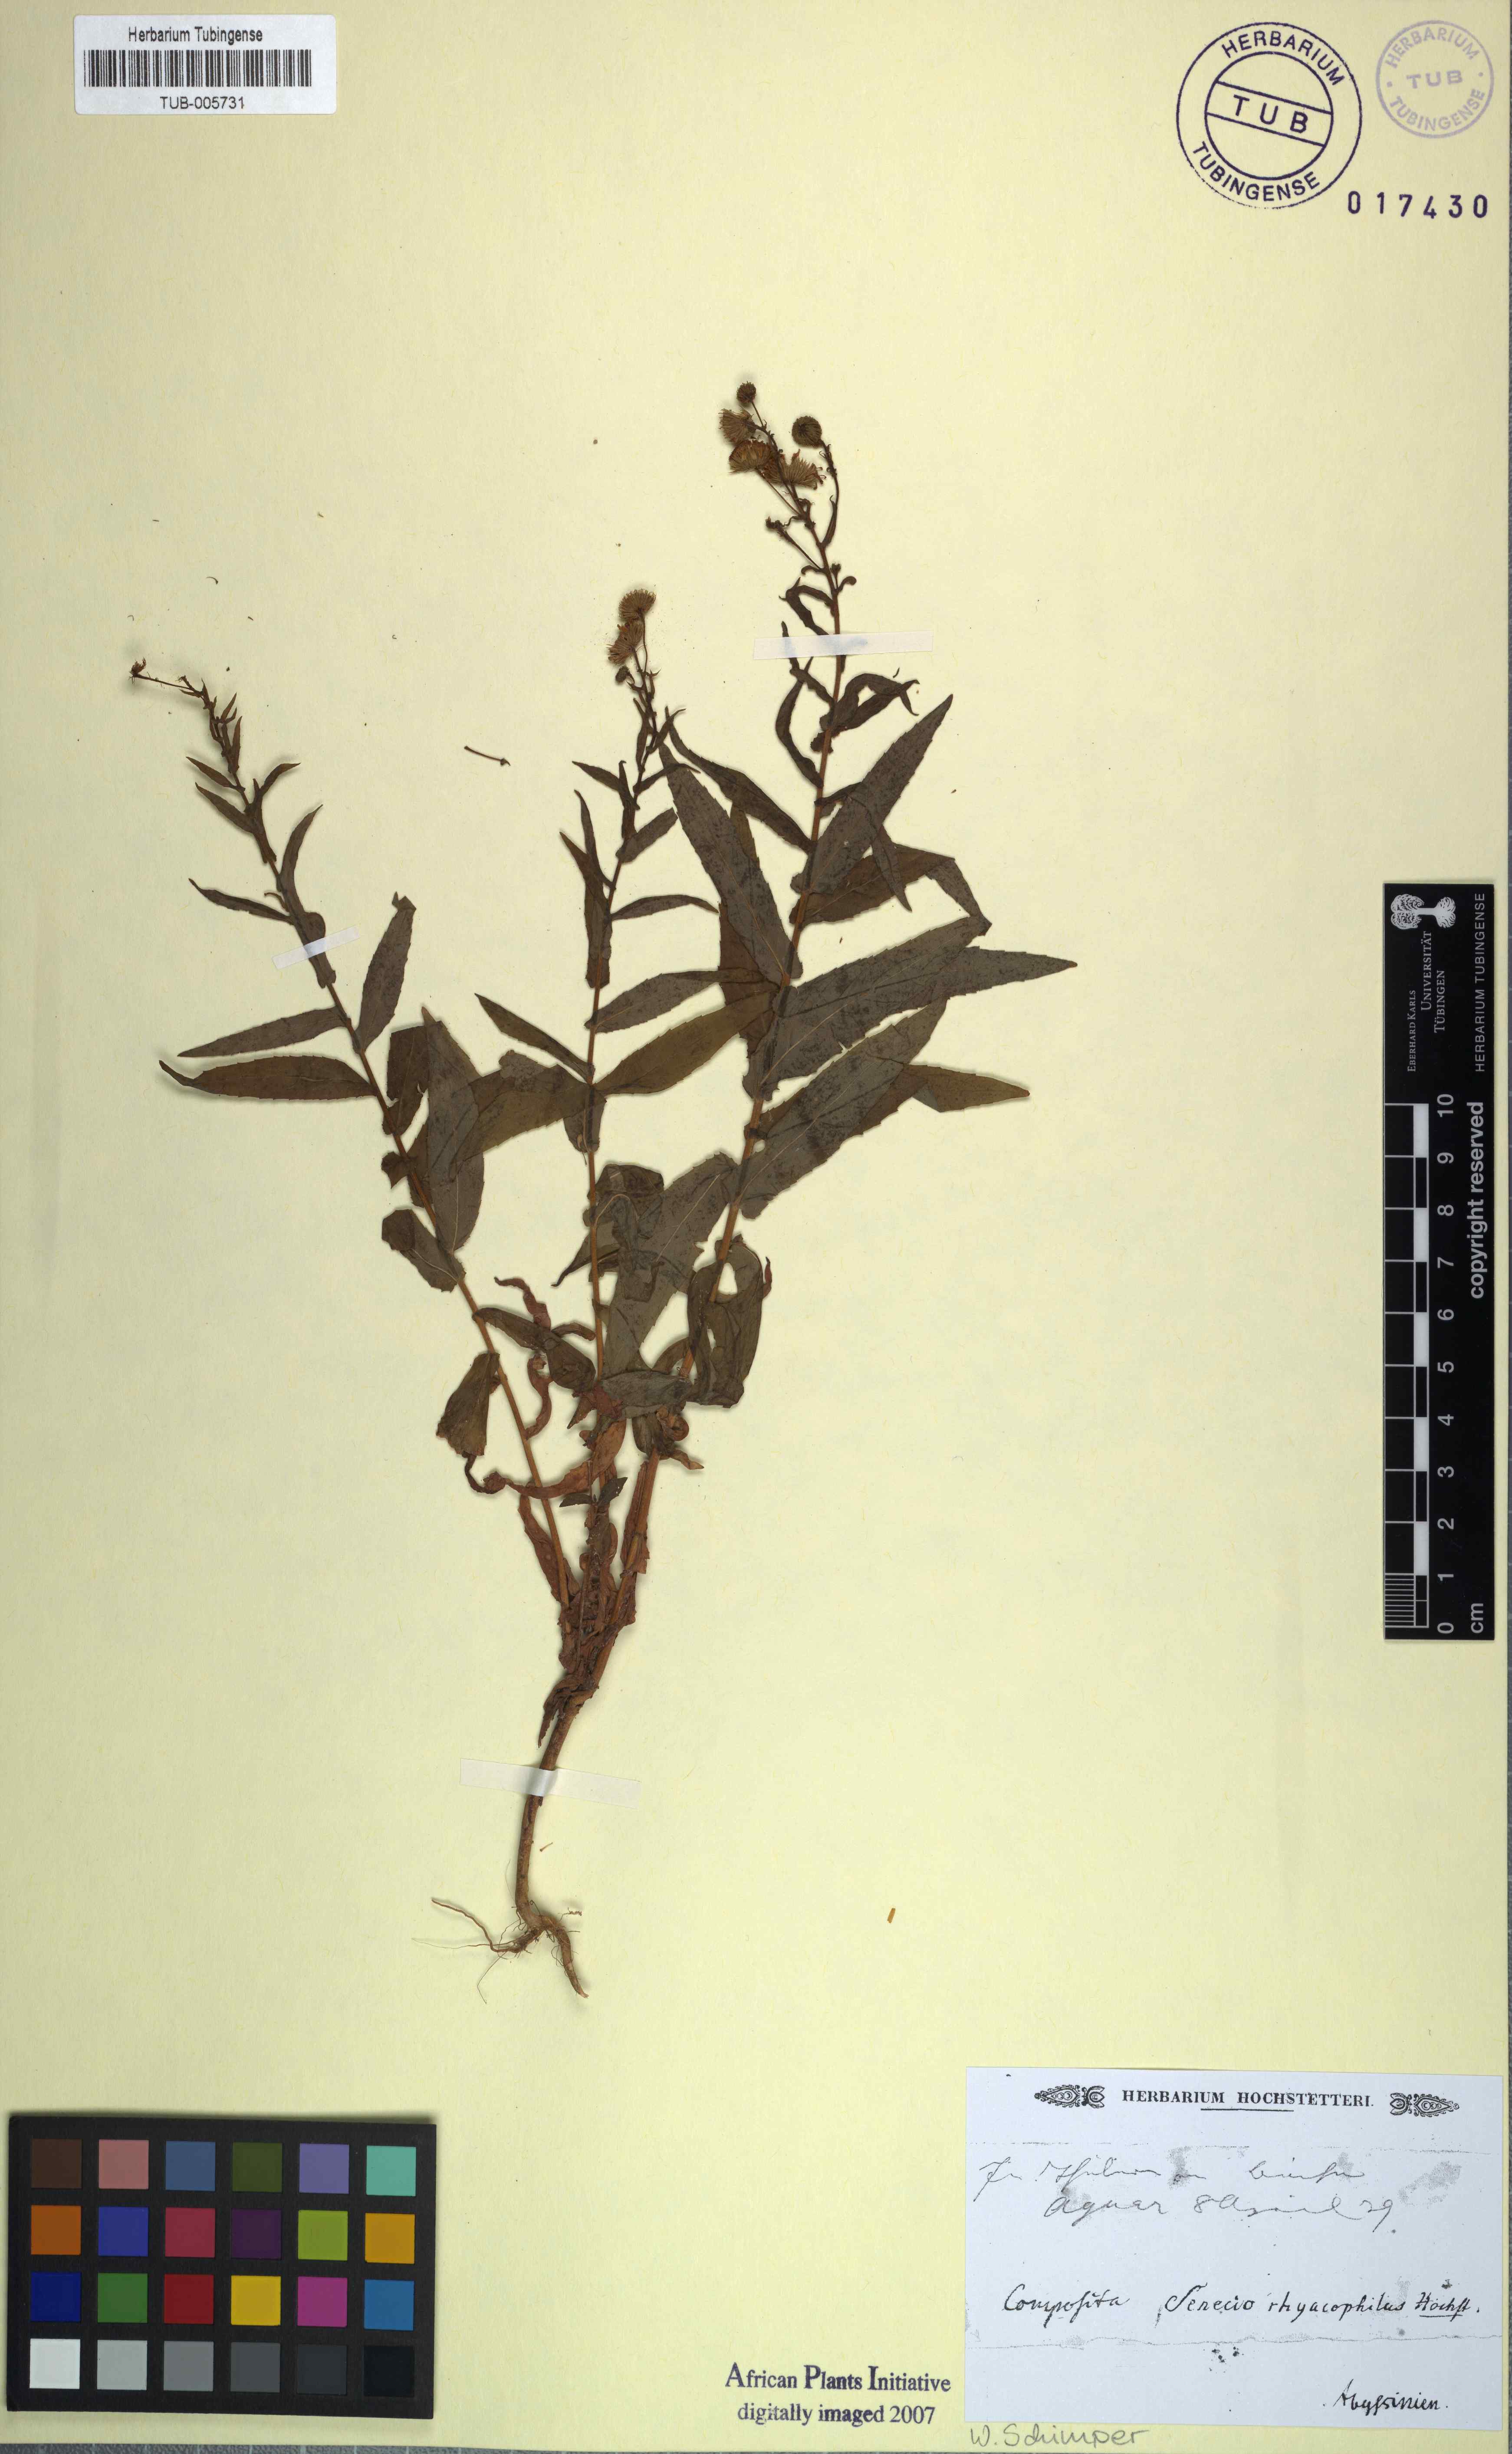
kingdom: Plantae
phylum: Tracheophyta
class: Magnoliopsida
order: Asterales
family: Asteraceae
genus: Senecio
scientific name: Senecio rhyacophilus
